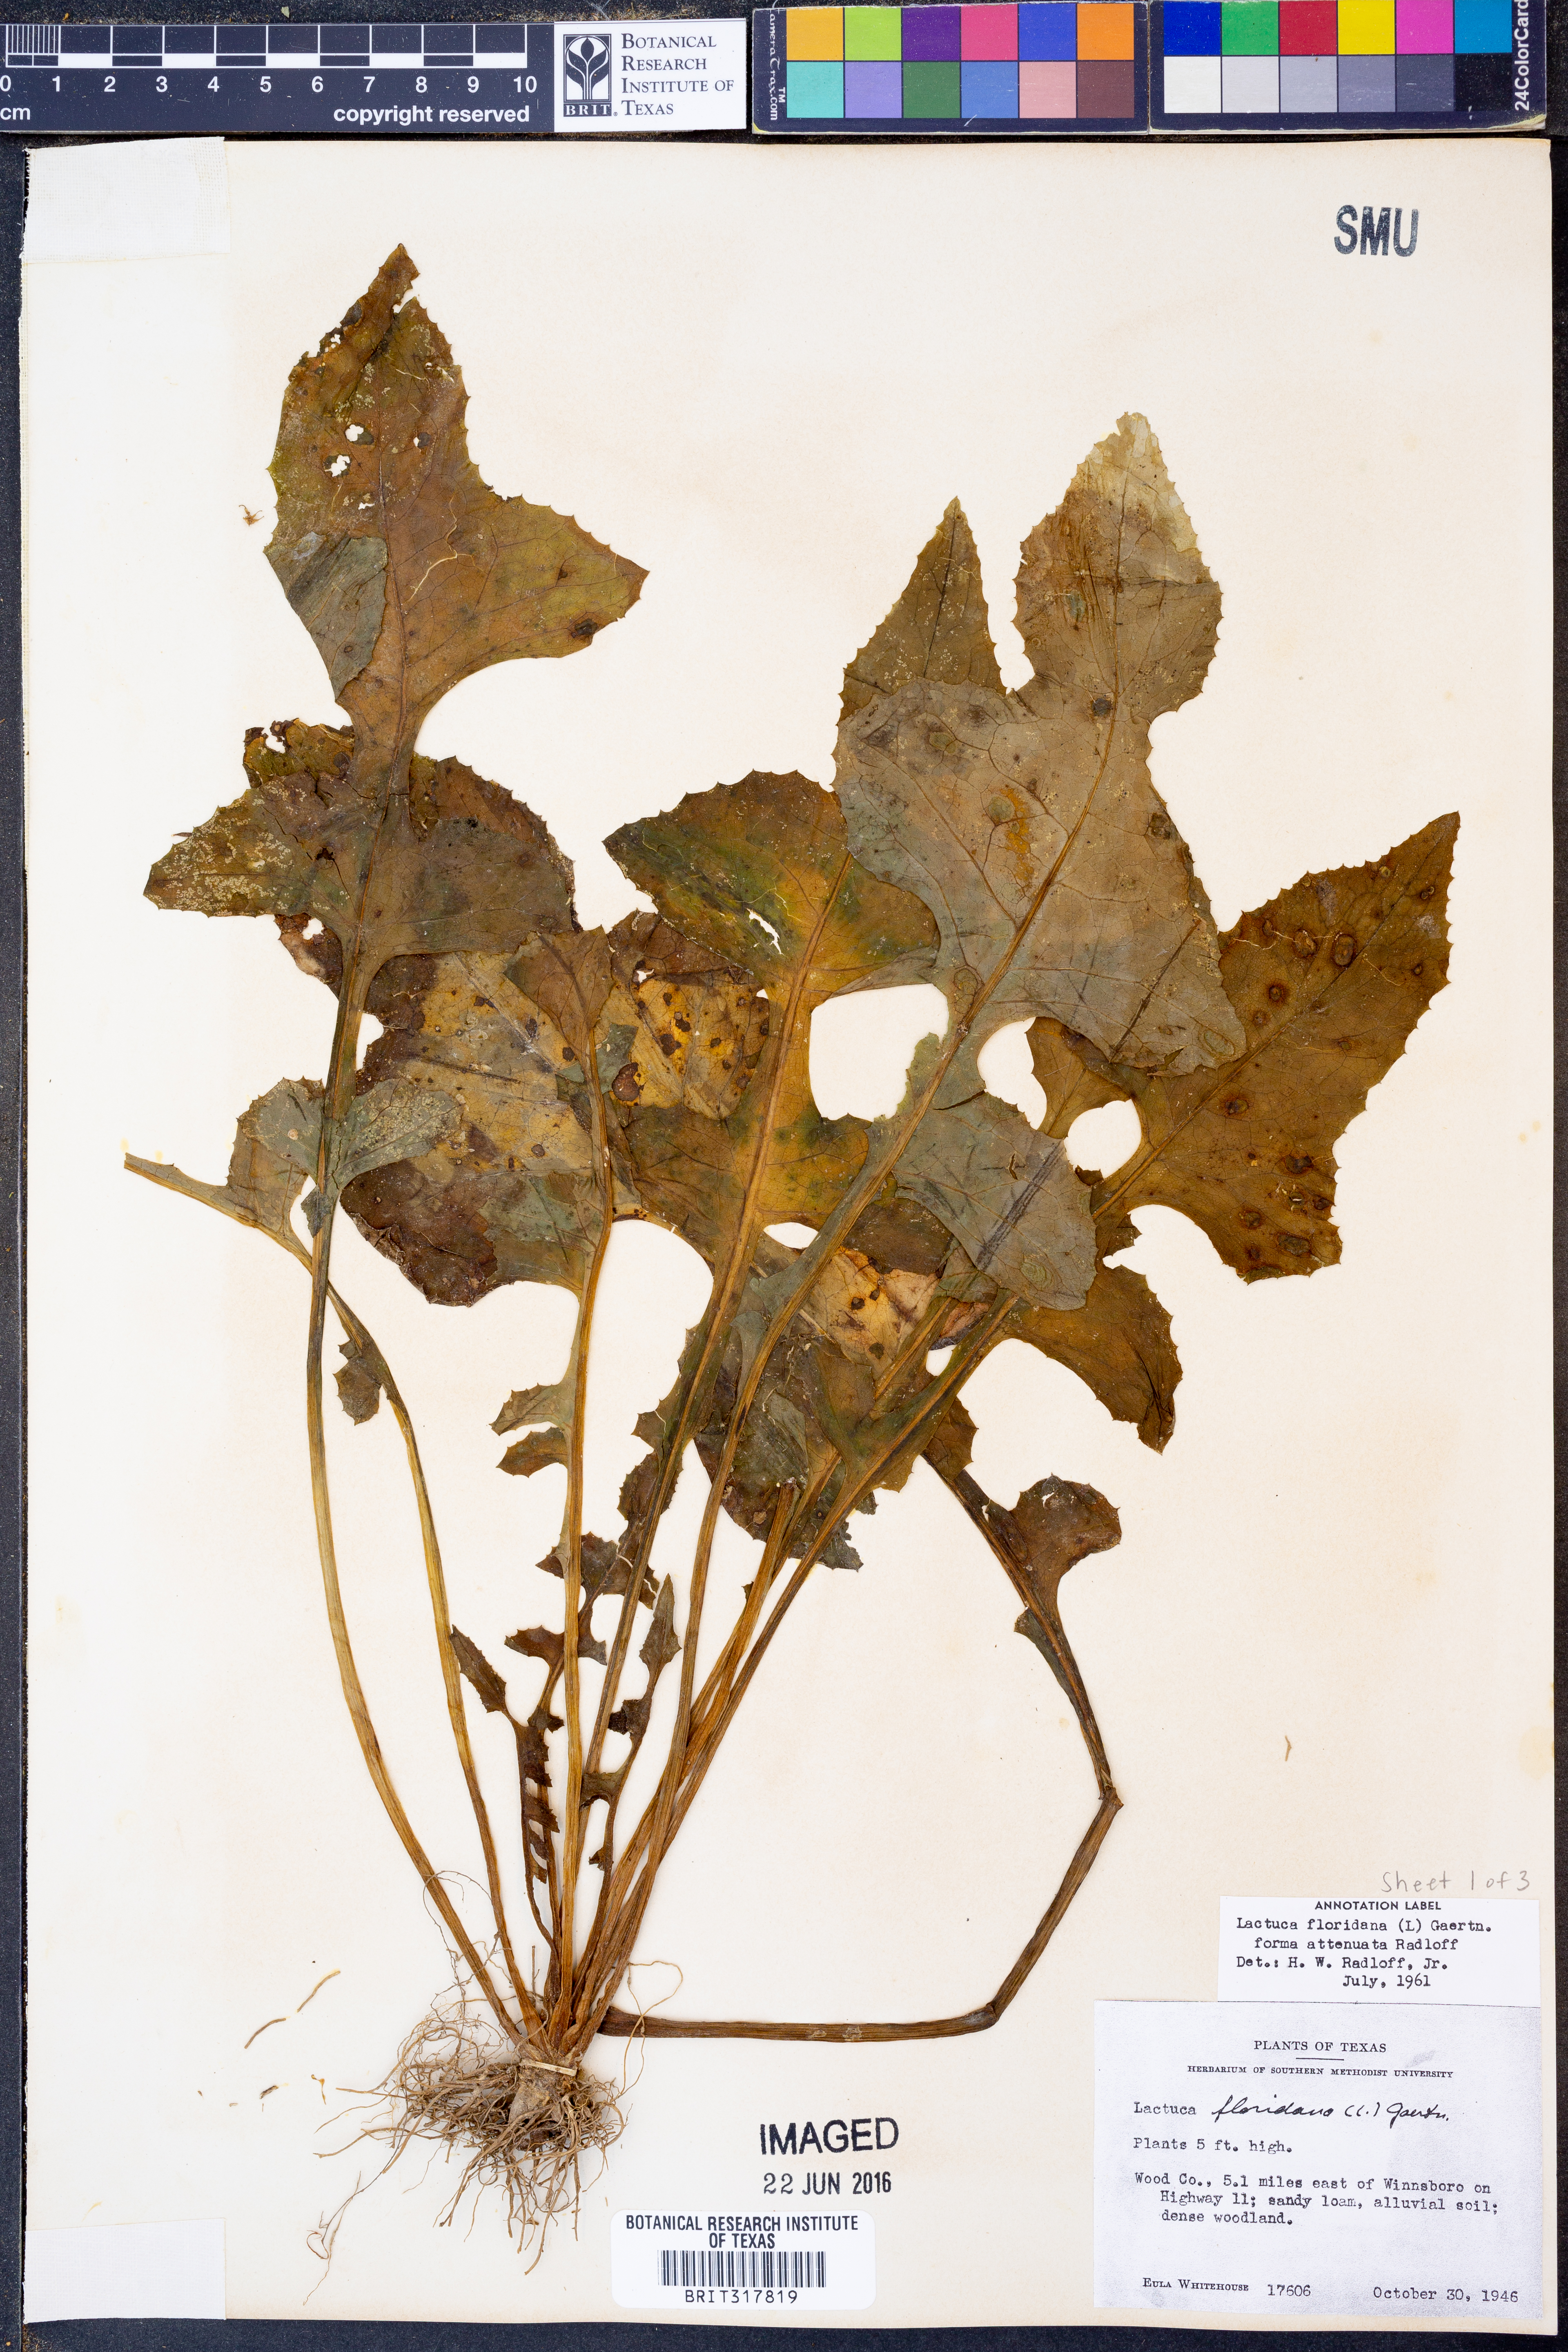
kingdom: Plantae
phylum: Tracheophyta
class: Magnoliopsida
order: Asterales
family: Asteraceae
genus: Lactuca
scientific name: Lactuca floridana
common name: Woodland lettuce
